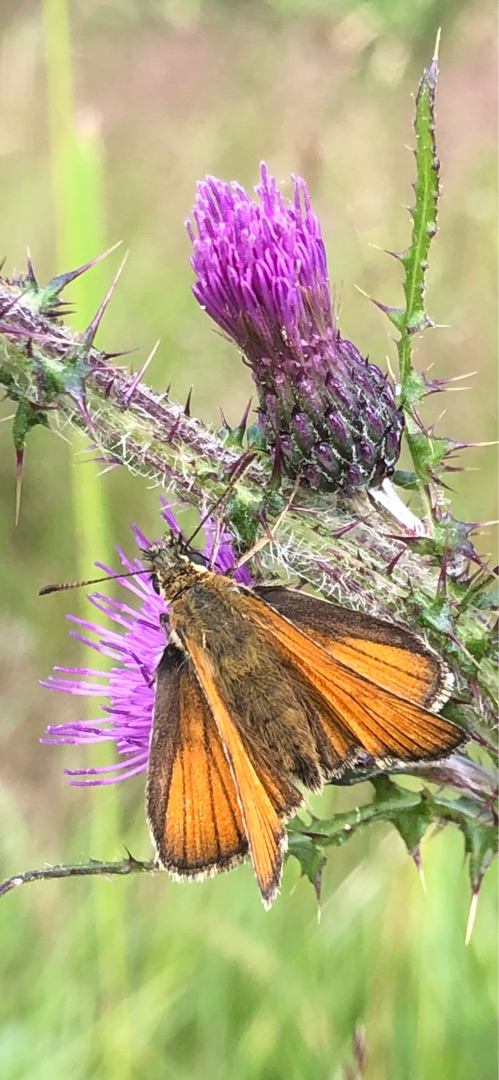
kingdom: Animalia
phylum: Arthropoda
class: Insecta
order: Lepidoptera
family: Hesperiidae
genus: Thymelicus
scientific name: Thymelicus lineola
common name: Stregbredpande
